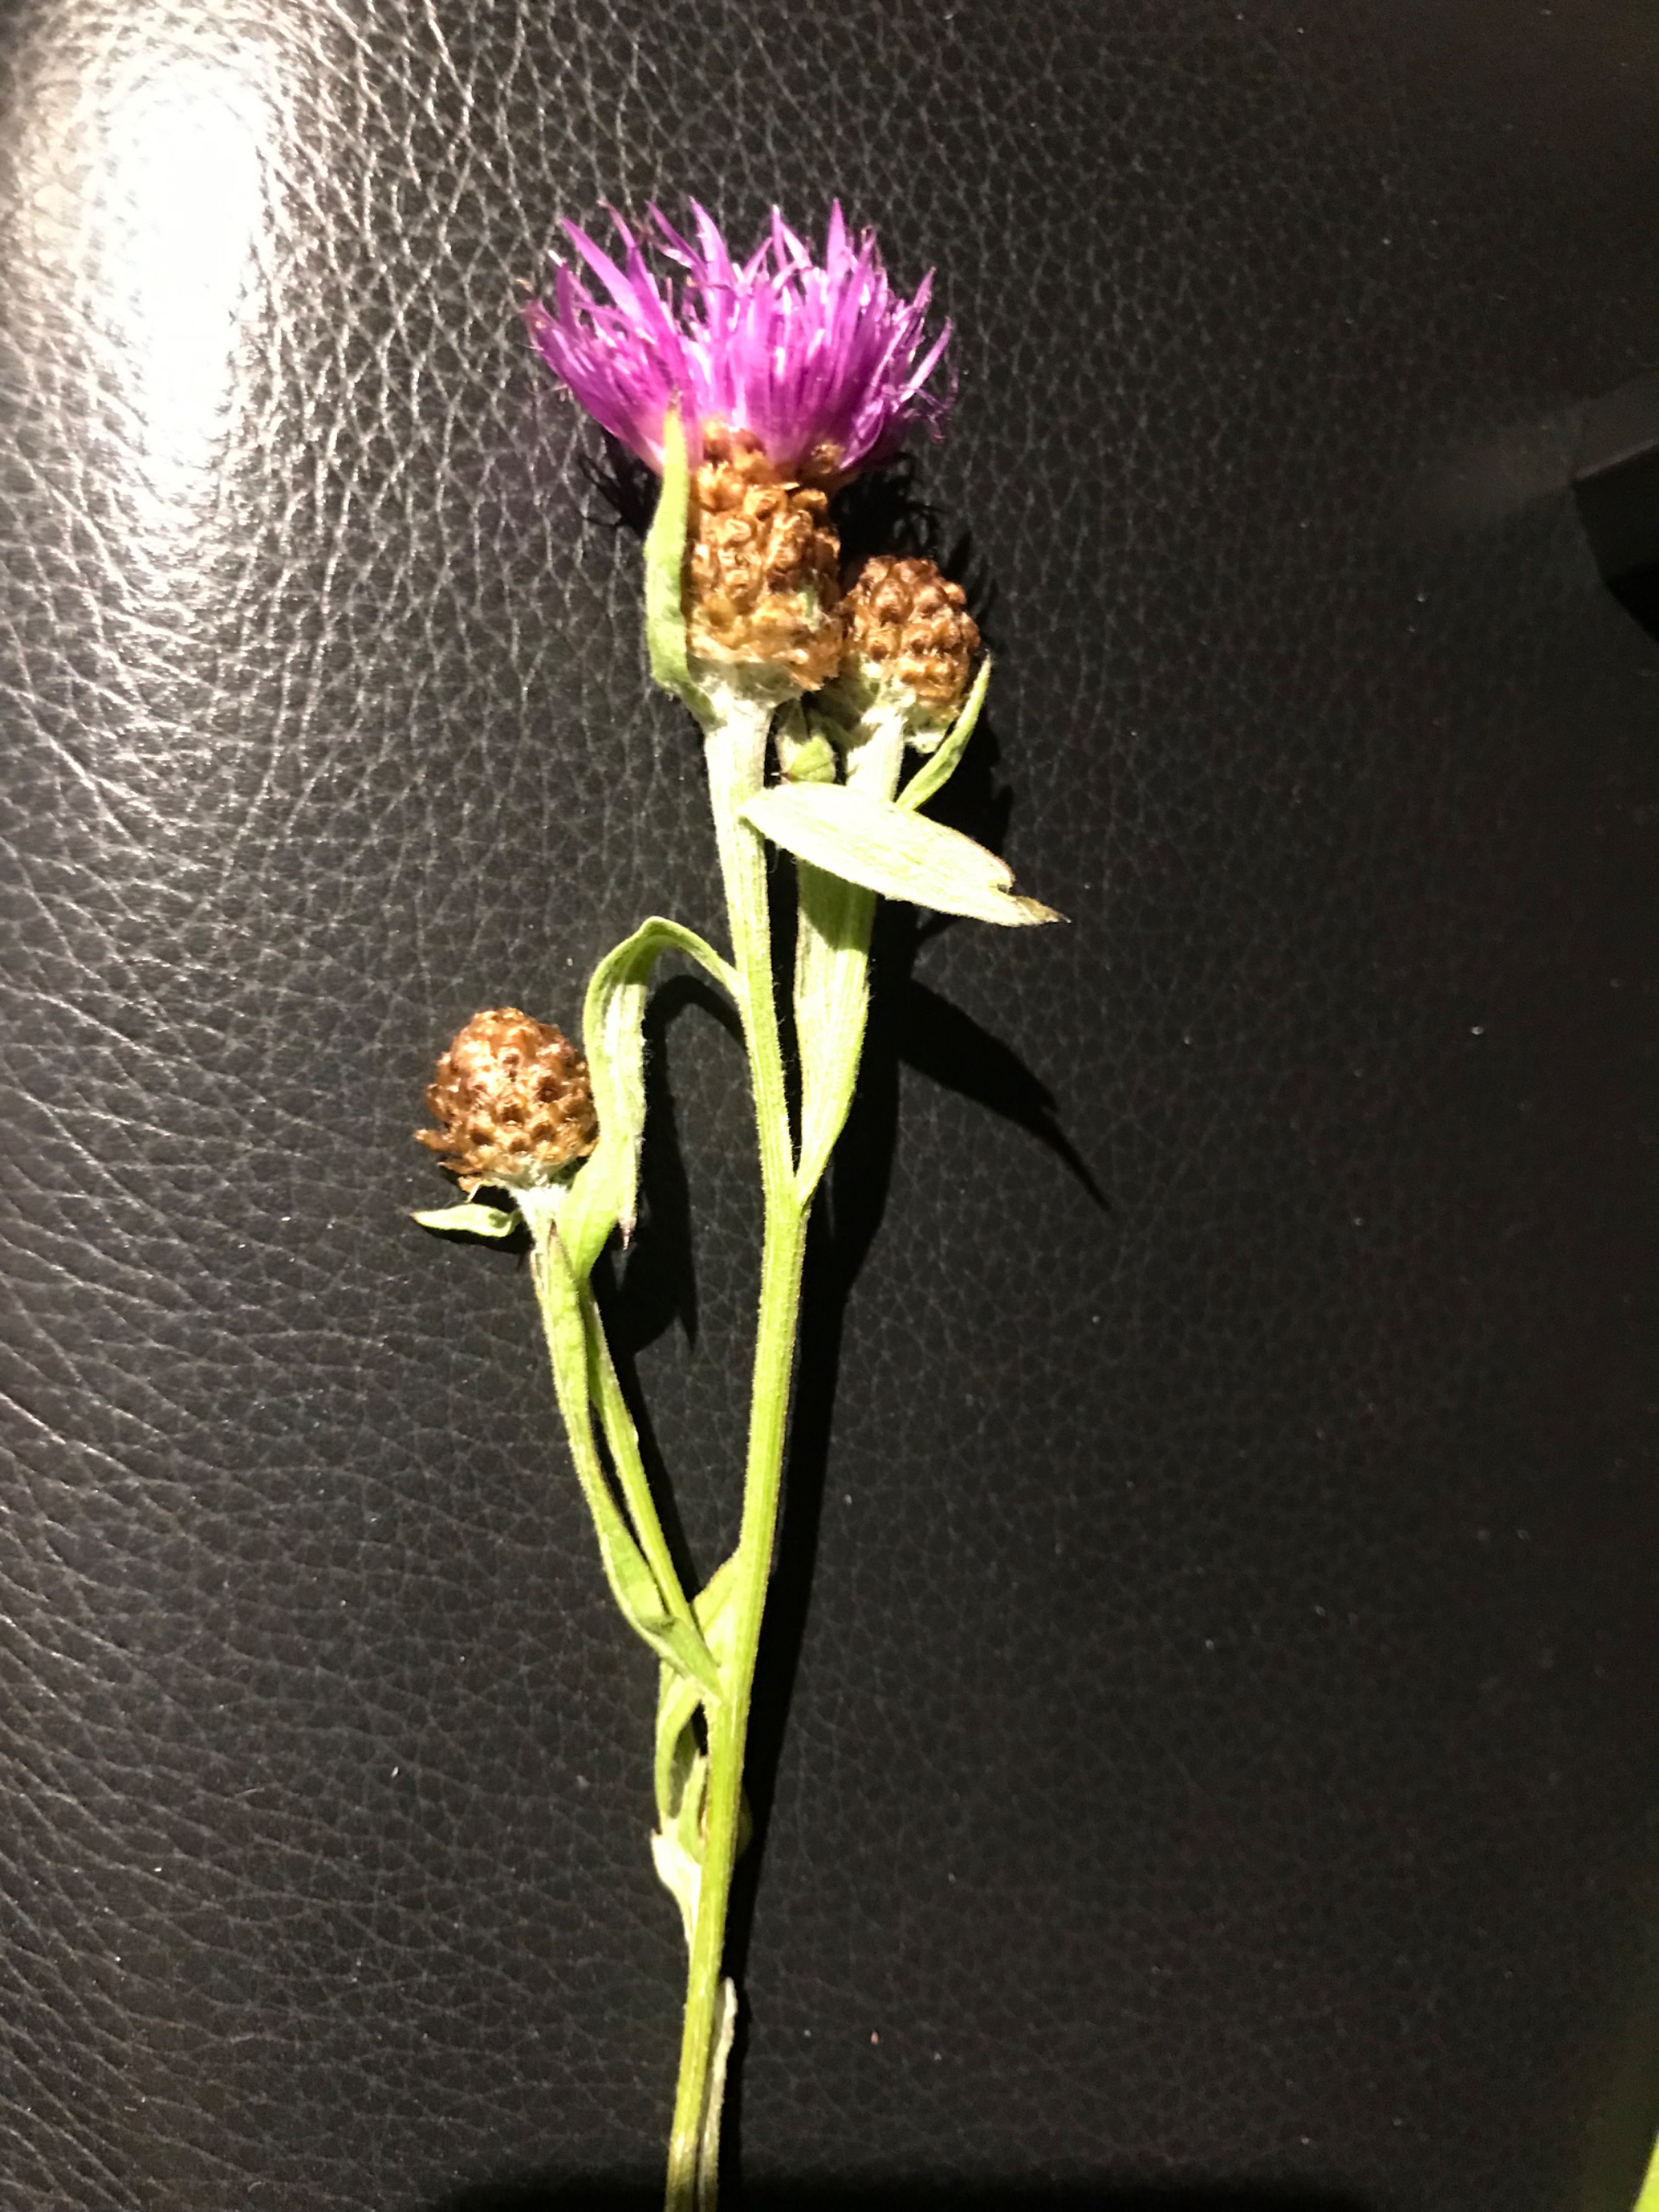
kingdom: Plantae
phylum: Tracheophyta
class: Magnoliopsida
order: Asterales
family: Asteraceae
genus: Centaurea
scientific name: Centaurea jacea
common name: Almindelig knopurt
